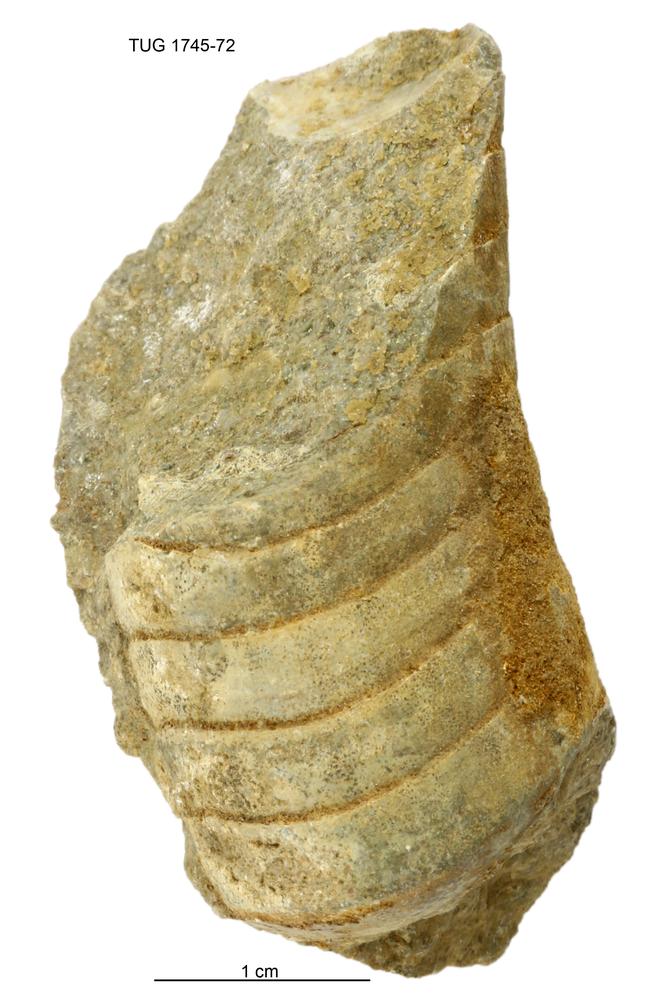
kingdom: Animalia
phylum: Mollusca
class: Cephalopoda
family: Tarphyceratidae
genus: Planctoceras
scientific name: Planctoceras
